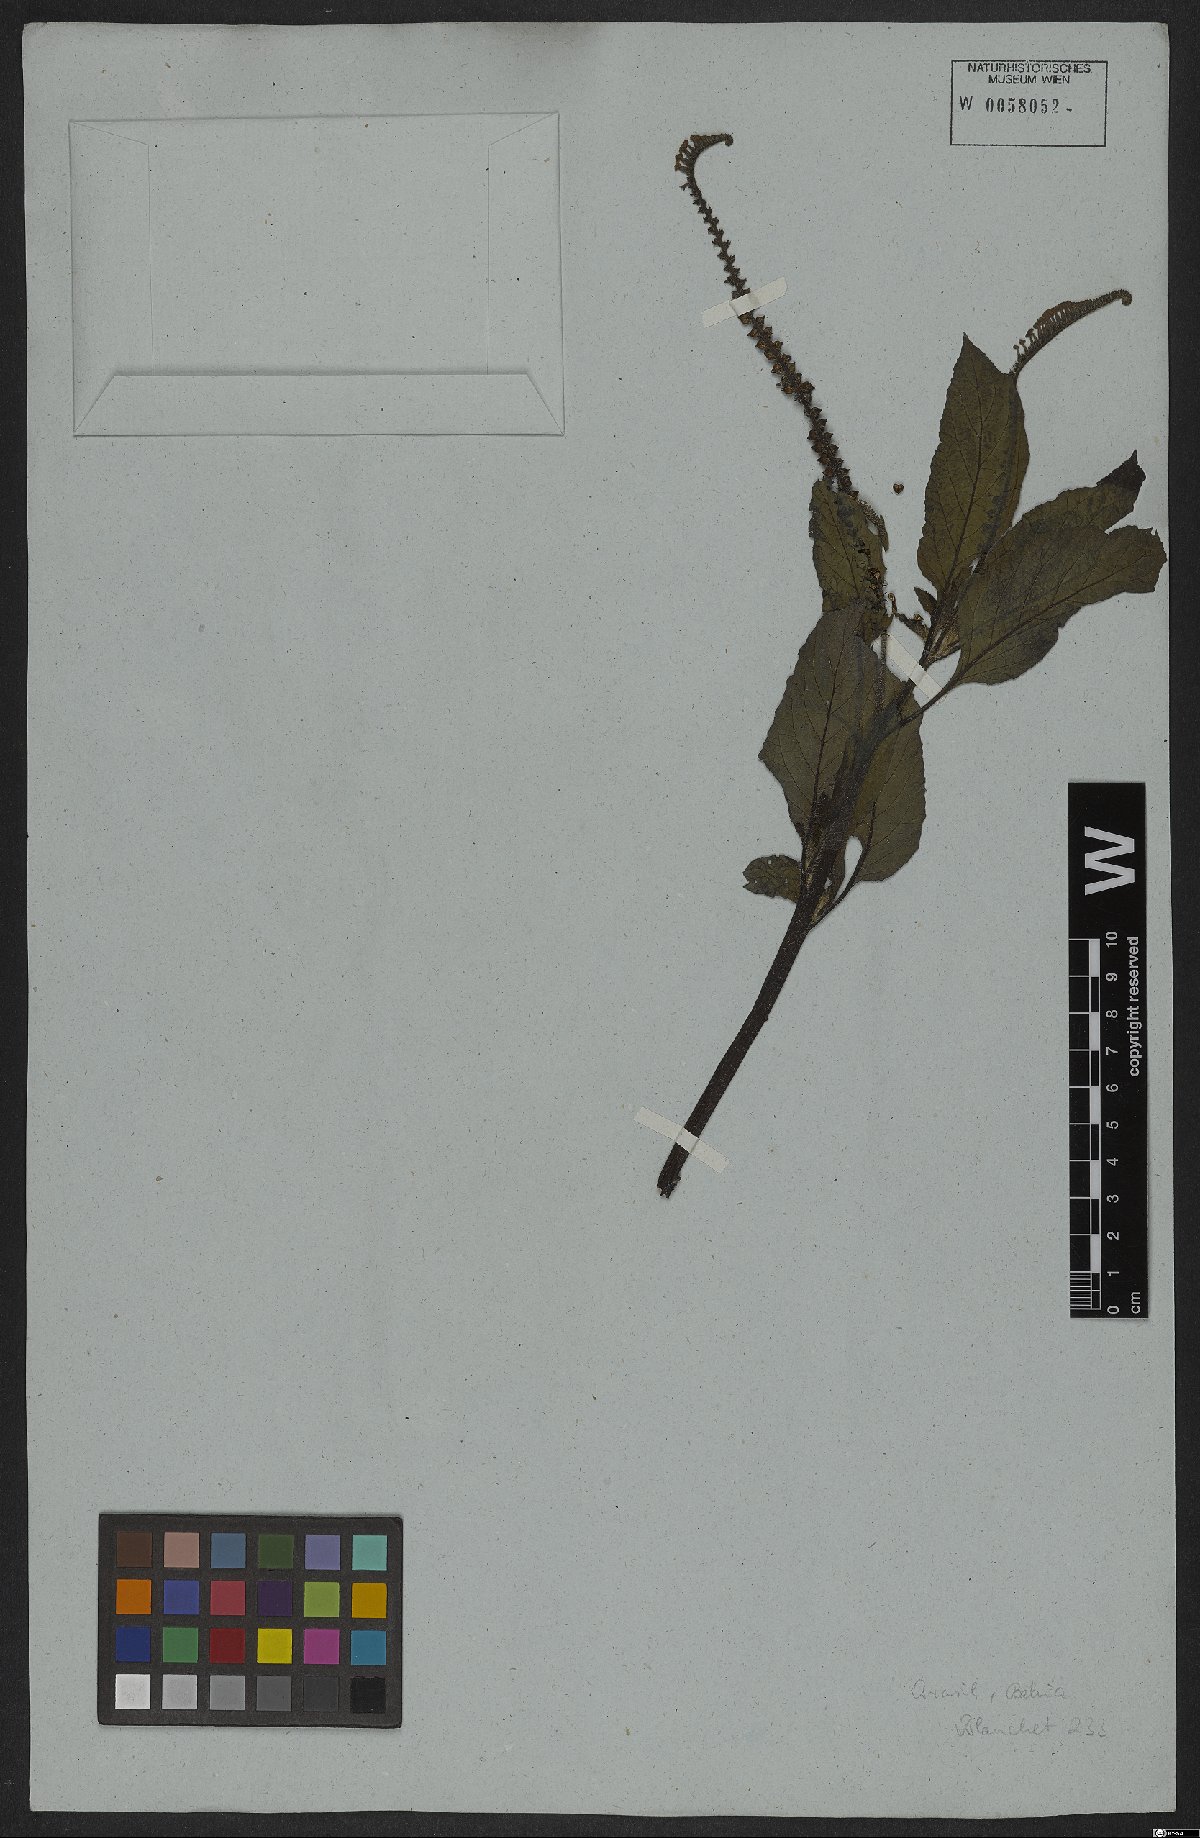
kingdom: Plantae
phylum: Tracheophyta
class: Magnoliopsida
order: Boraginales
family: Heliotropiaceae
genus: Heliotropium
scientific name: Heliotropium indicum
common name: Indian heliotrope
